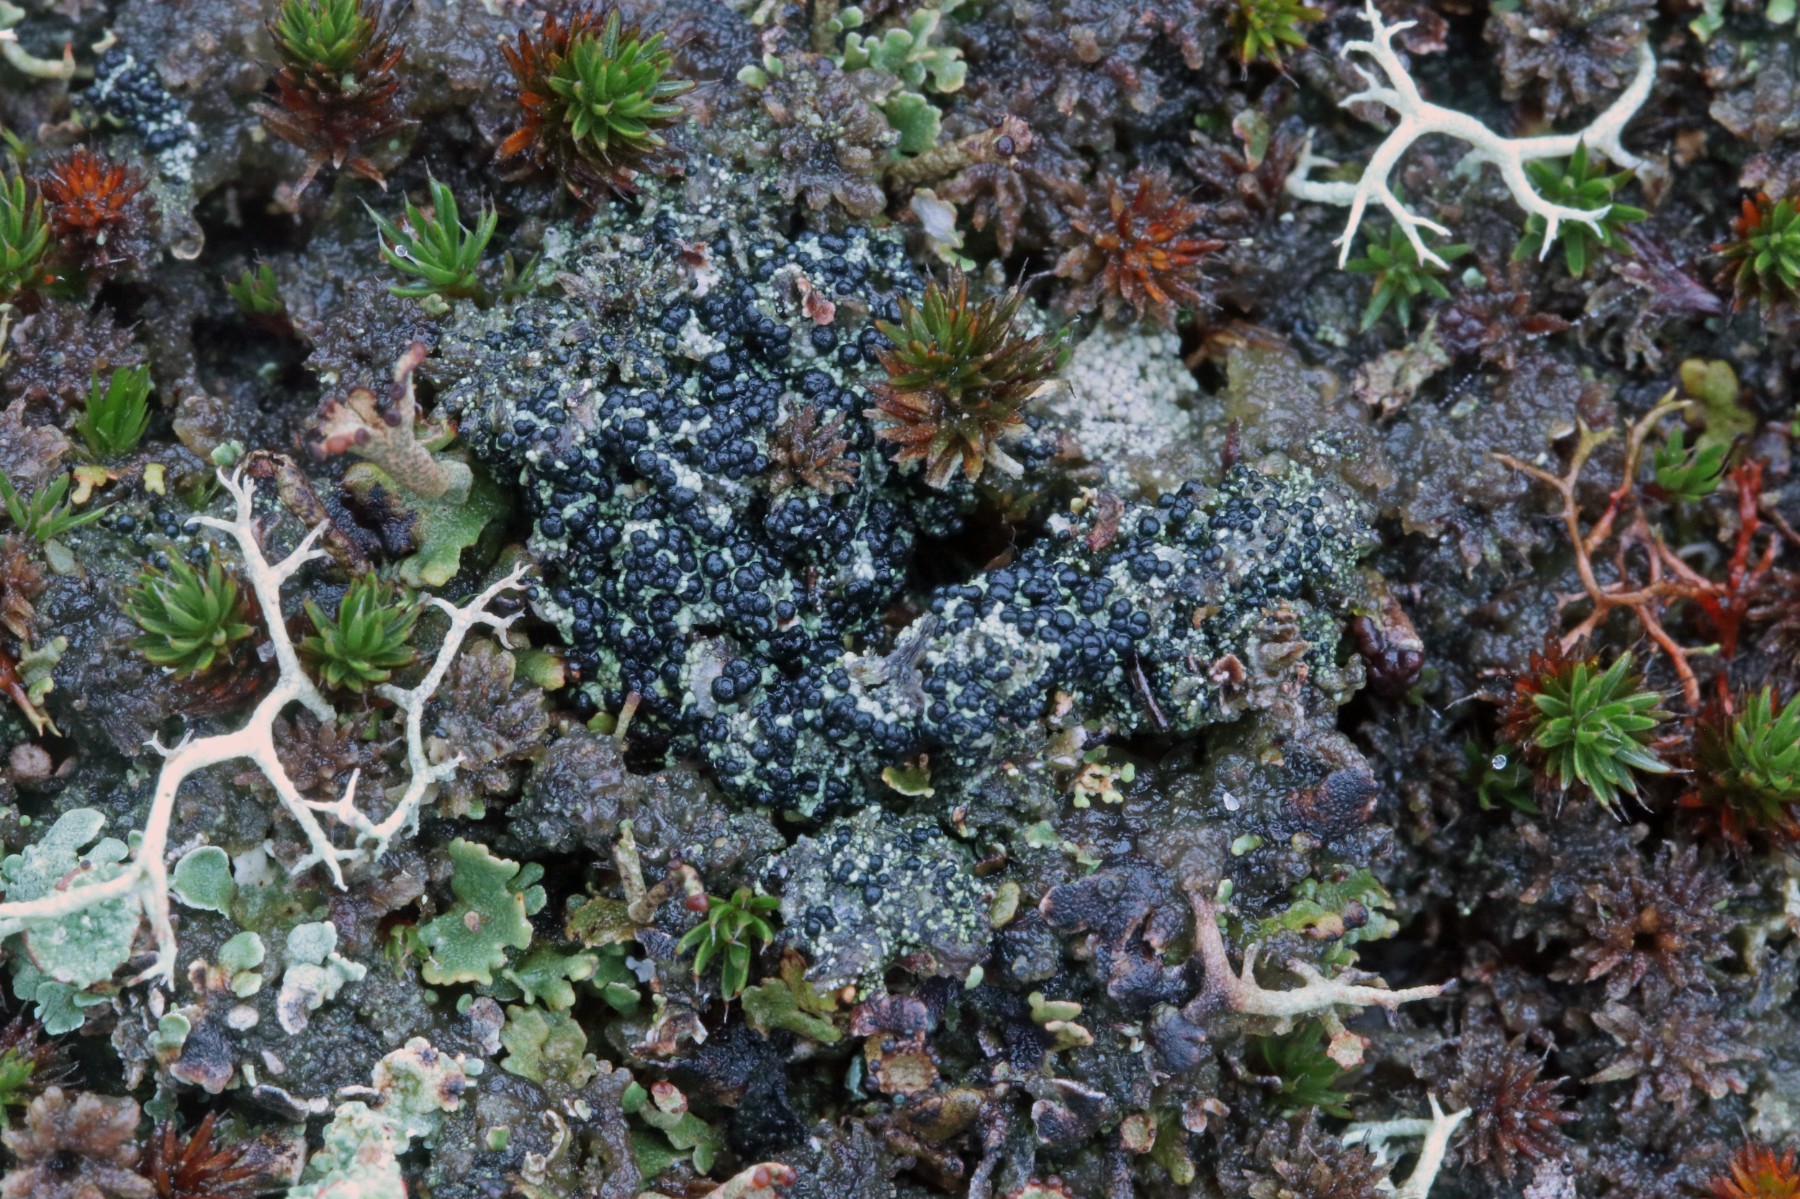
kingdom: Fungi
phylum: Ascomycota
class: Lecanoromycetes
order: Lecanorales
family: Byssolomataceae
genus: Micarea
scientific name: Micarea lignaria
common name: tørve-knaplav
